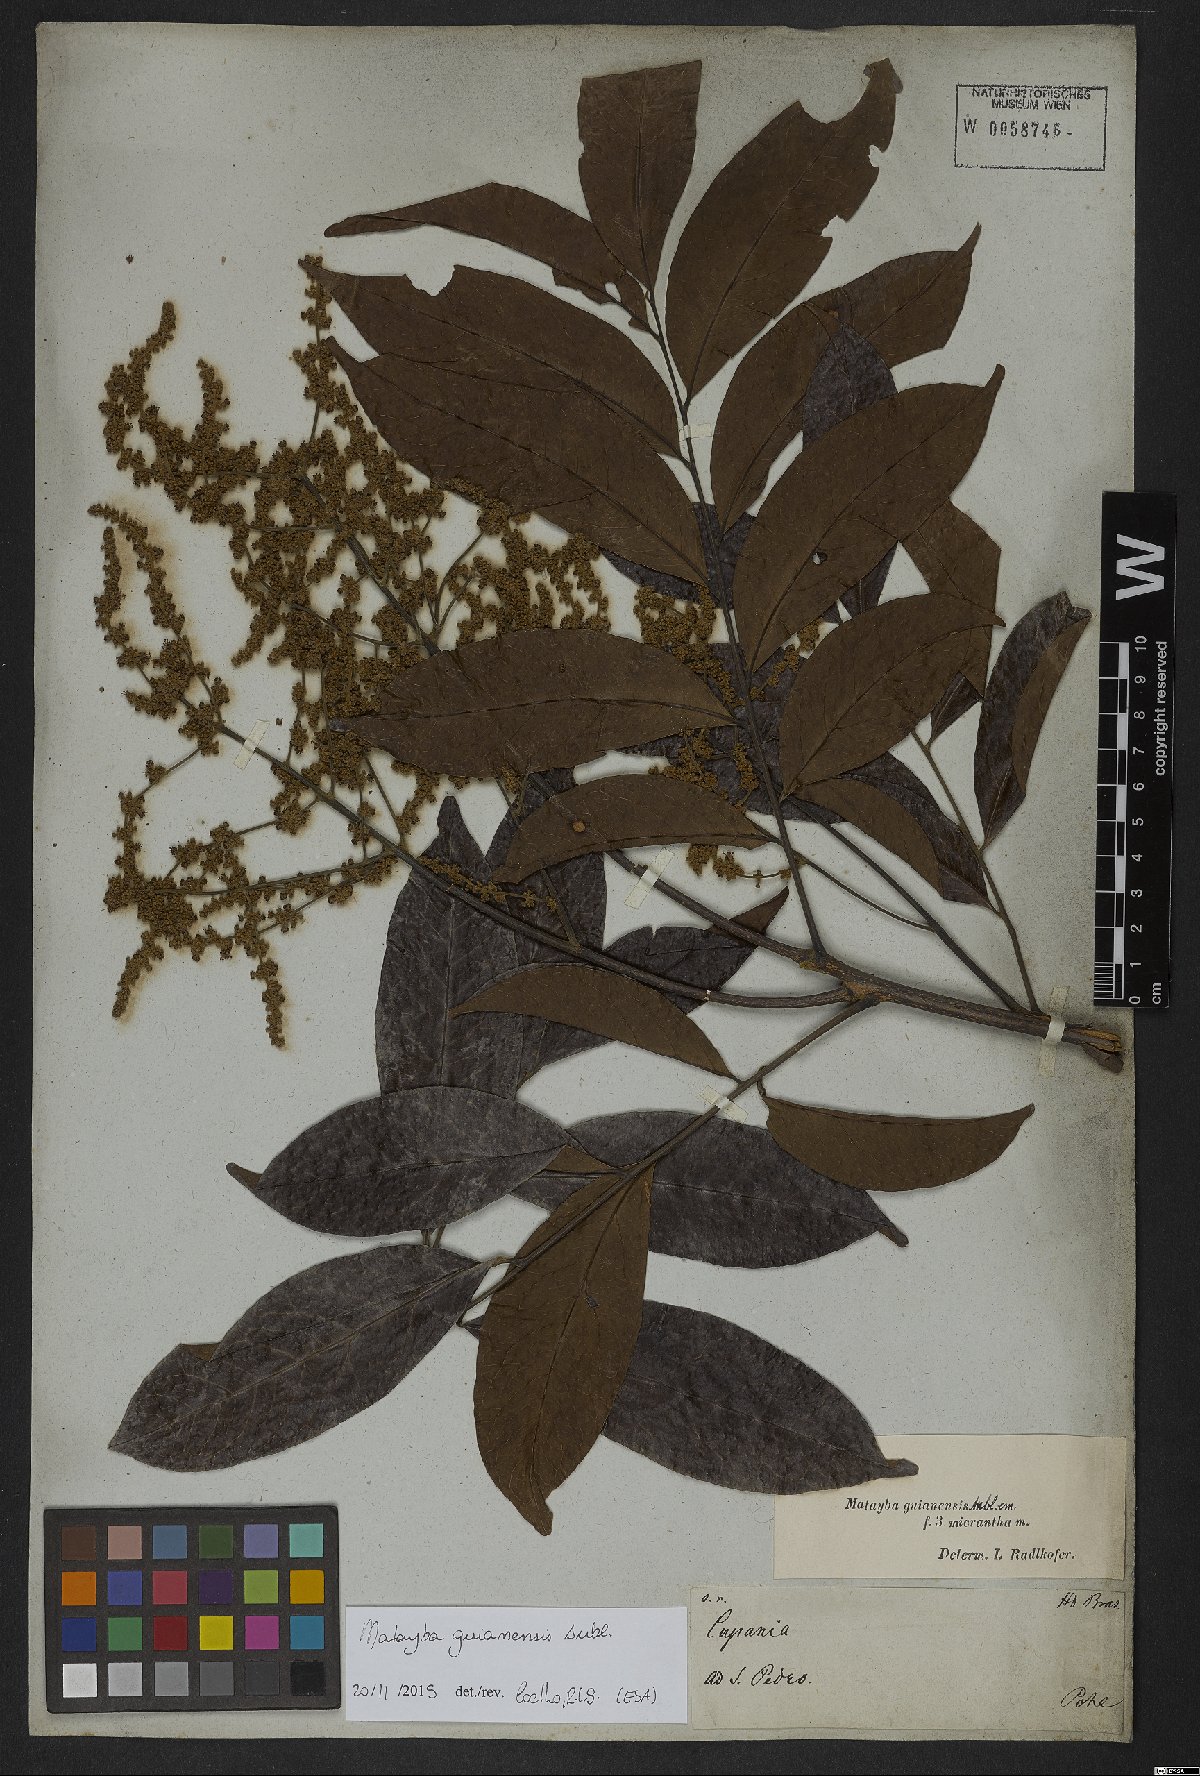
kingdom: Plantae
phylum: Tracheophyta
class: Magnoliopsida
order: Sapindales
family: Sapindaceae
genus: Matayba
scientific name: Matayba guianensis
